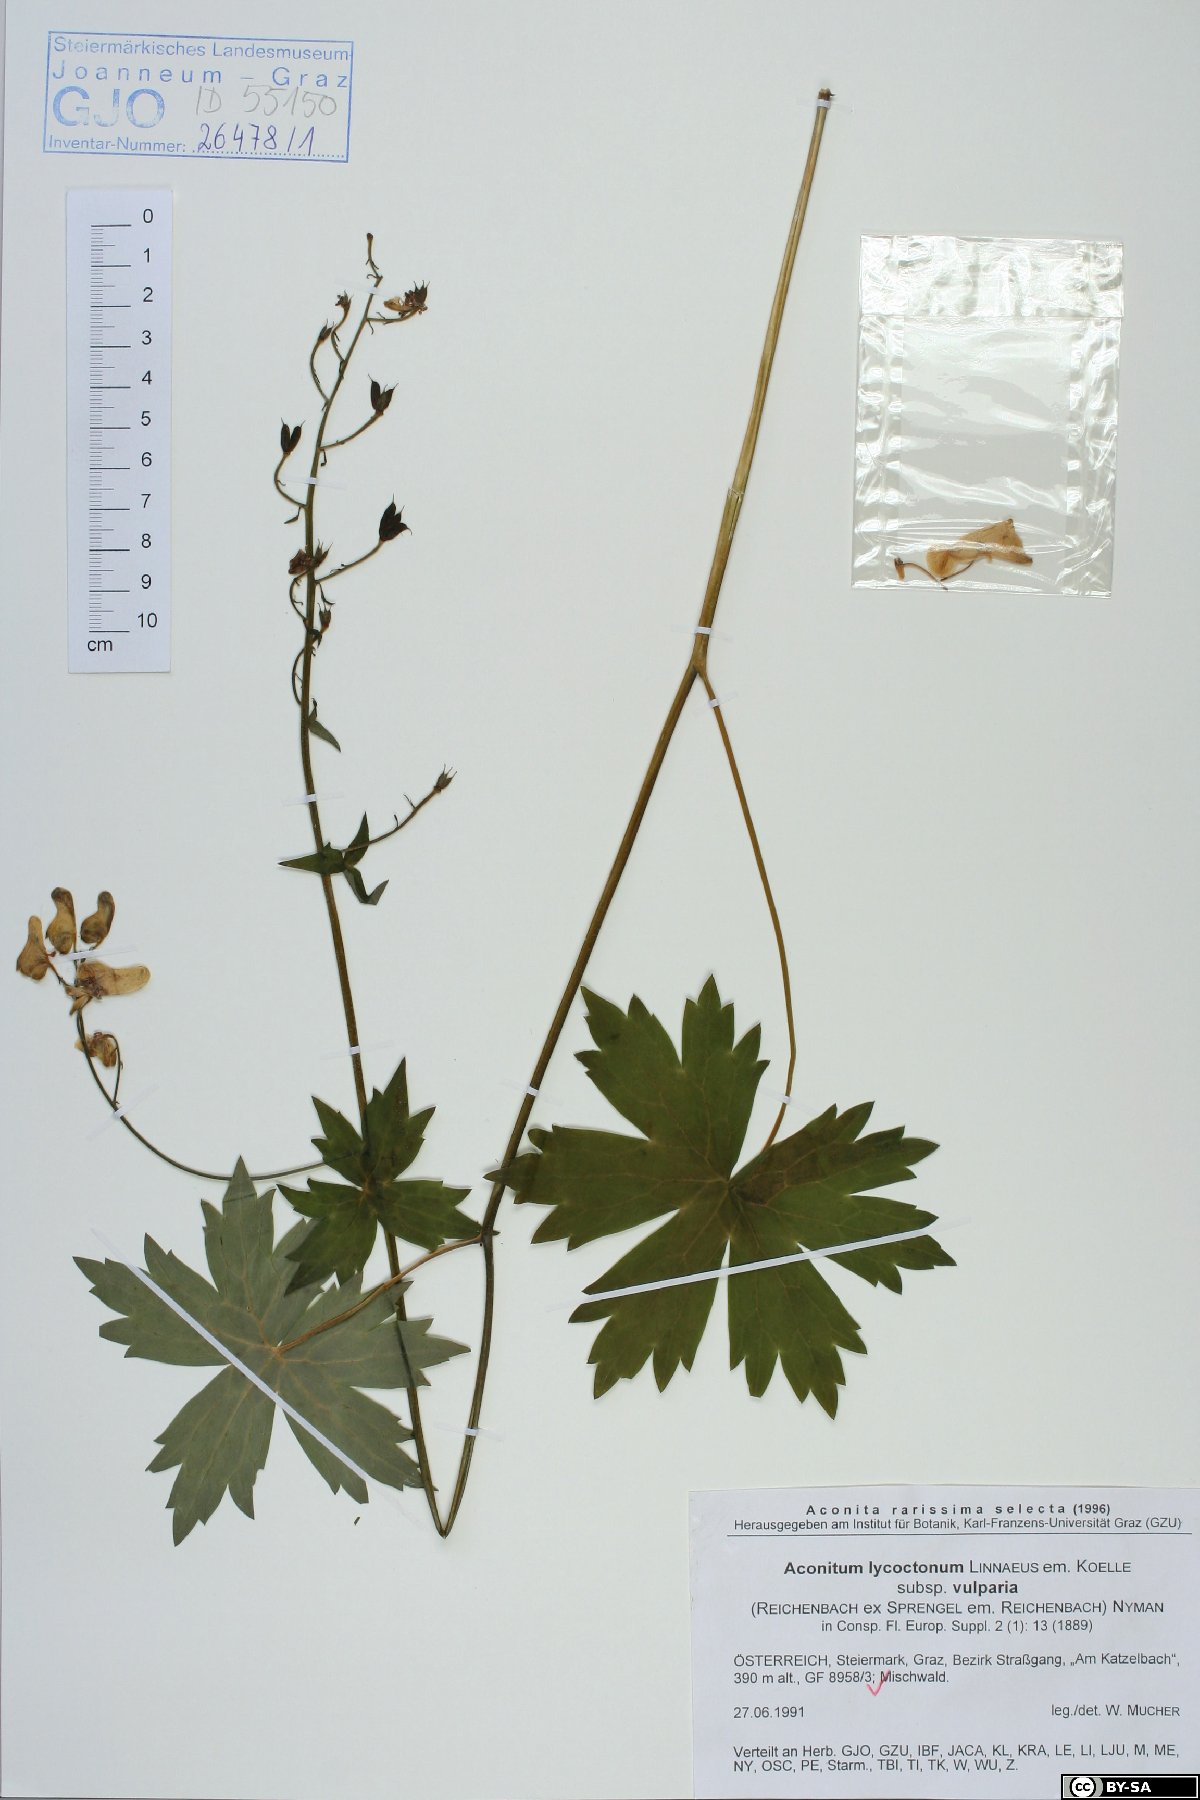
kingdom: Plantae
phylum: Tracheophyta
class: Magnoliopsida
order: Ranunculales
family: Ranunculaceae
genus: Aconitum
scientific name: Aconitum lycoctonum
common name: Wolf's-bane
